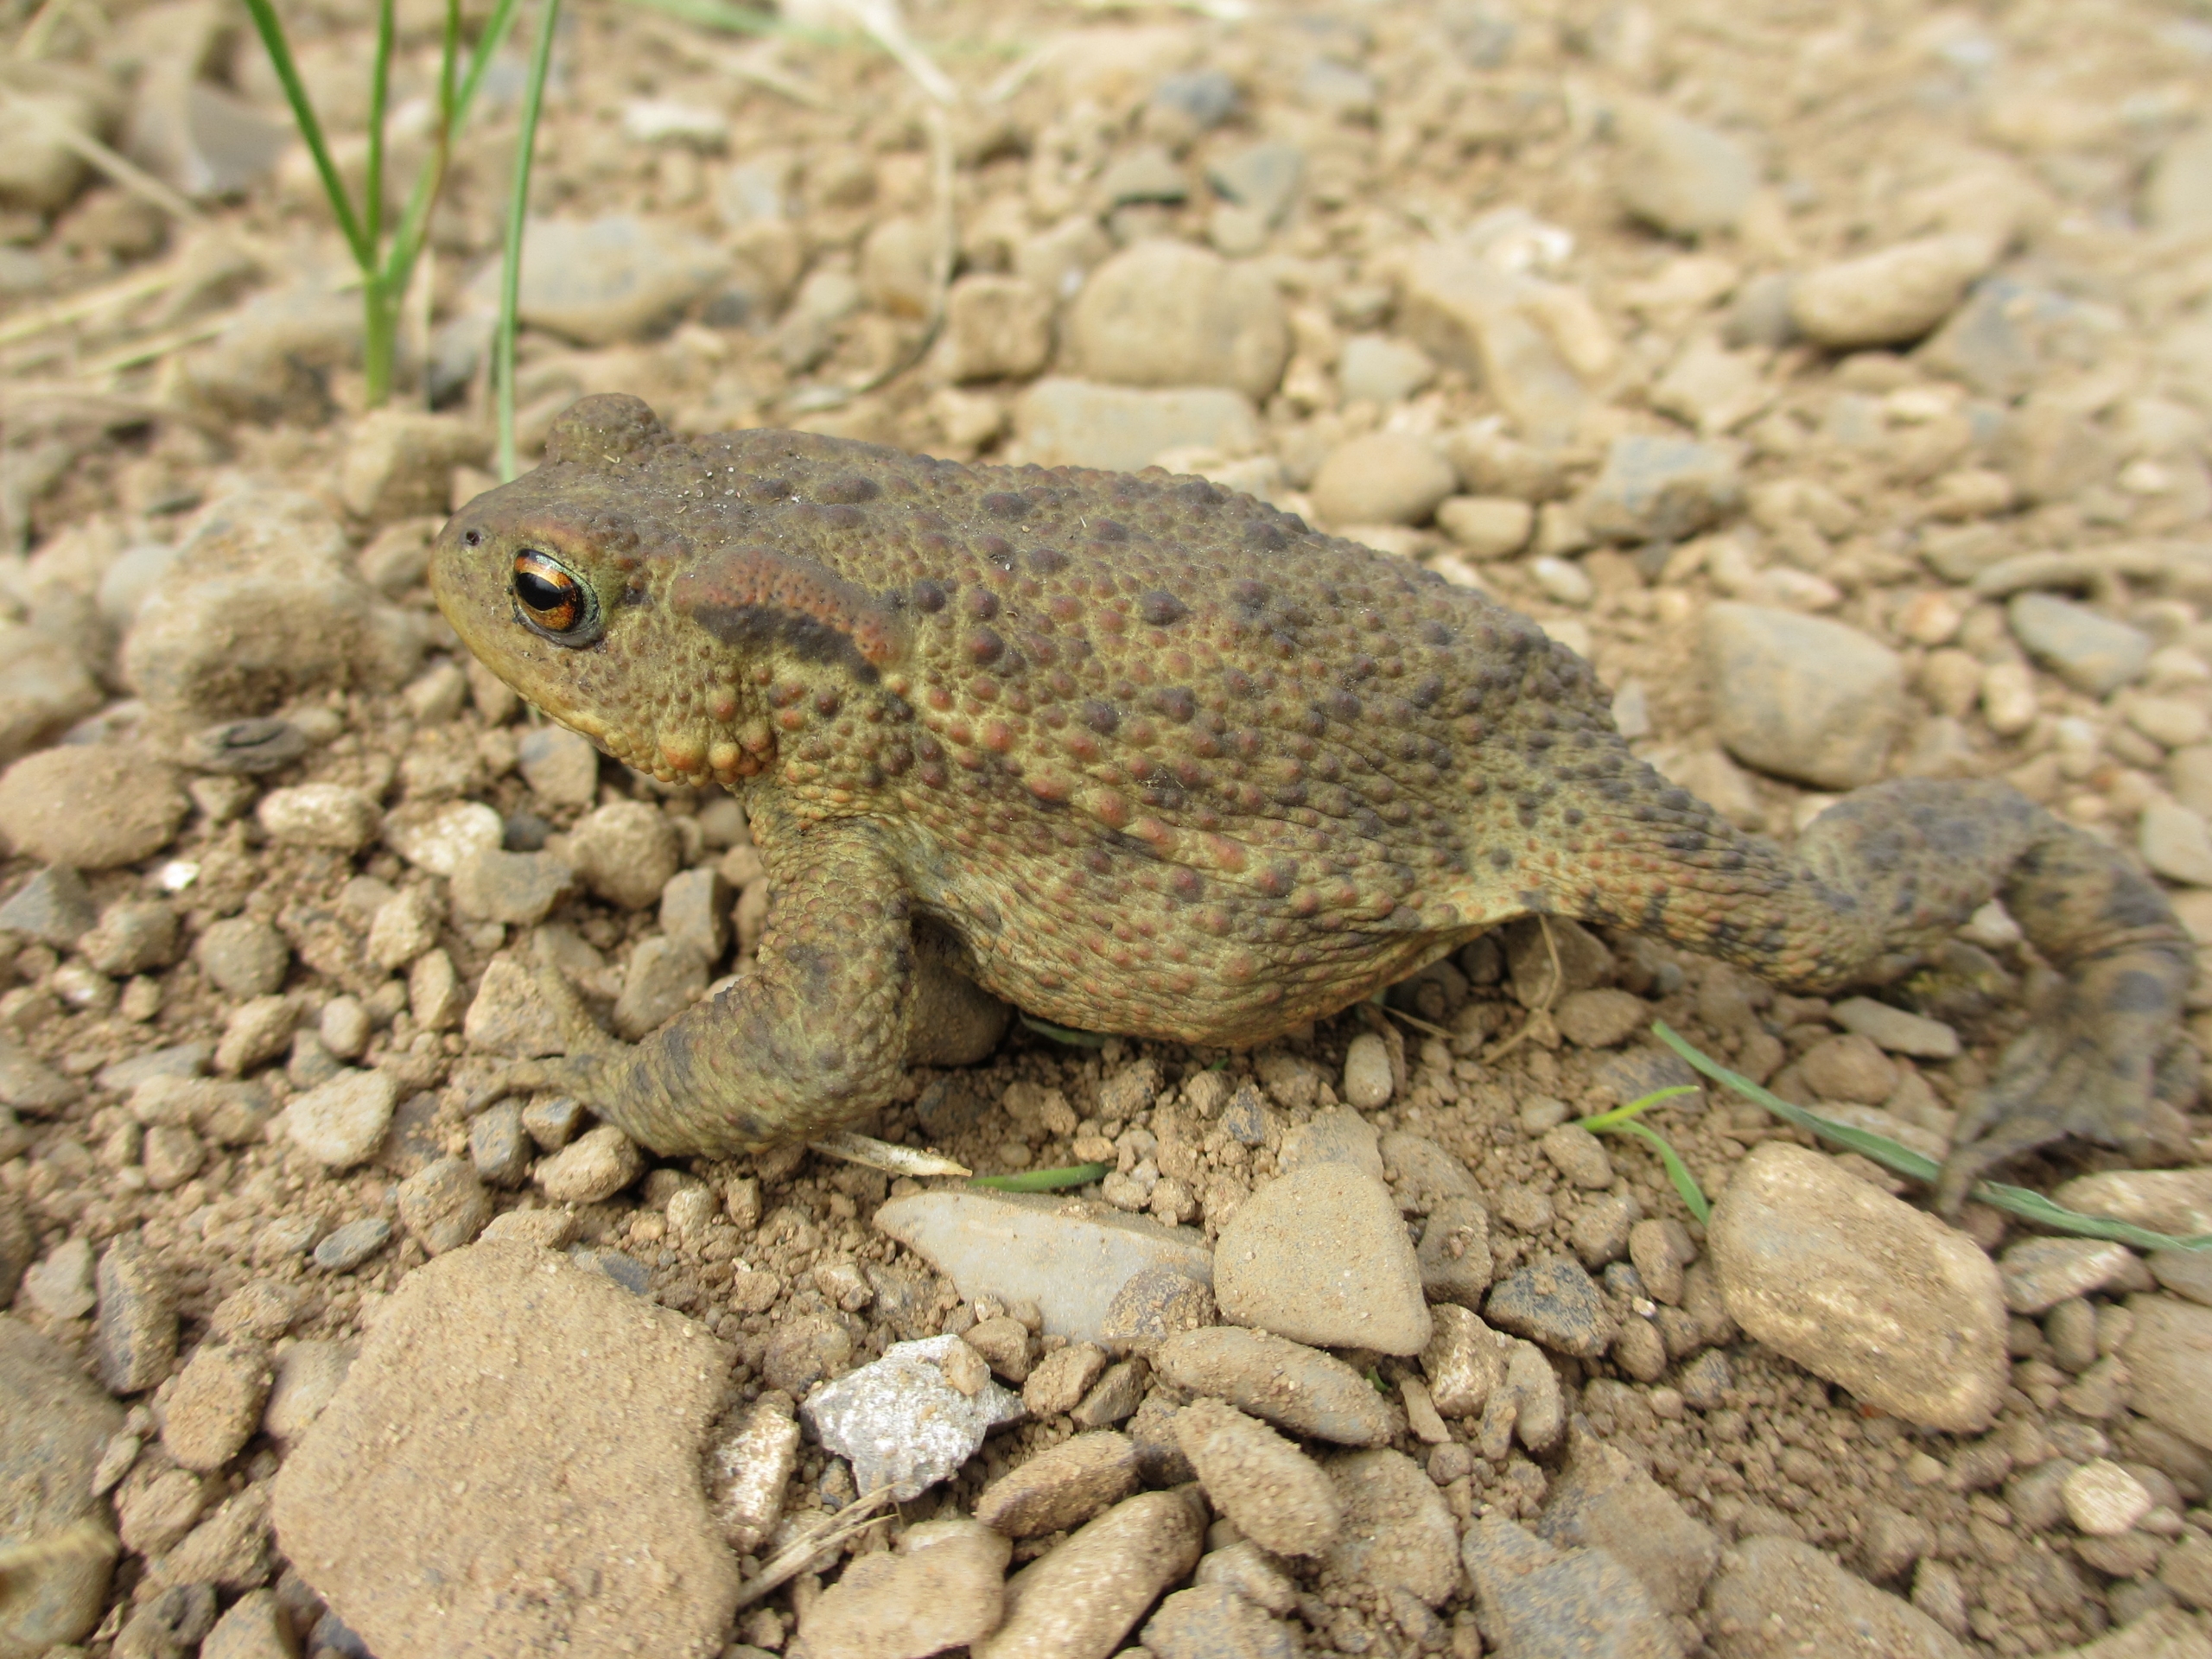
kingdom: Animalia
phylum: Chordata
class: Amphibia
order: Anura
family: Bufonidae
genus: Bufo
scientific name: Bufo bufo
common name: Skrubtudse
